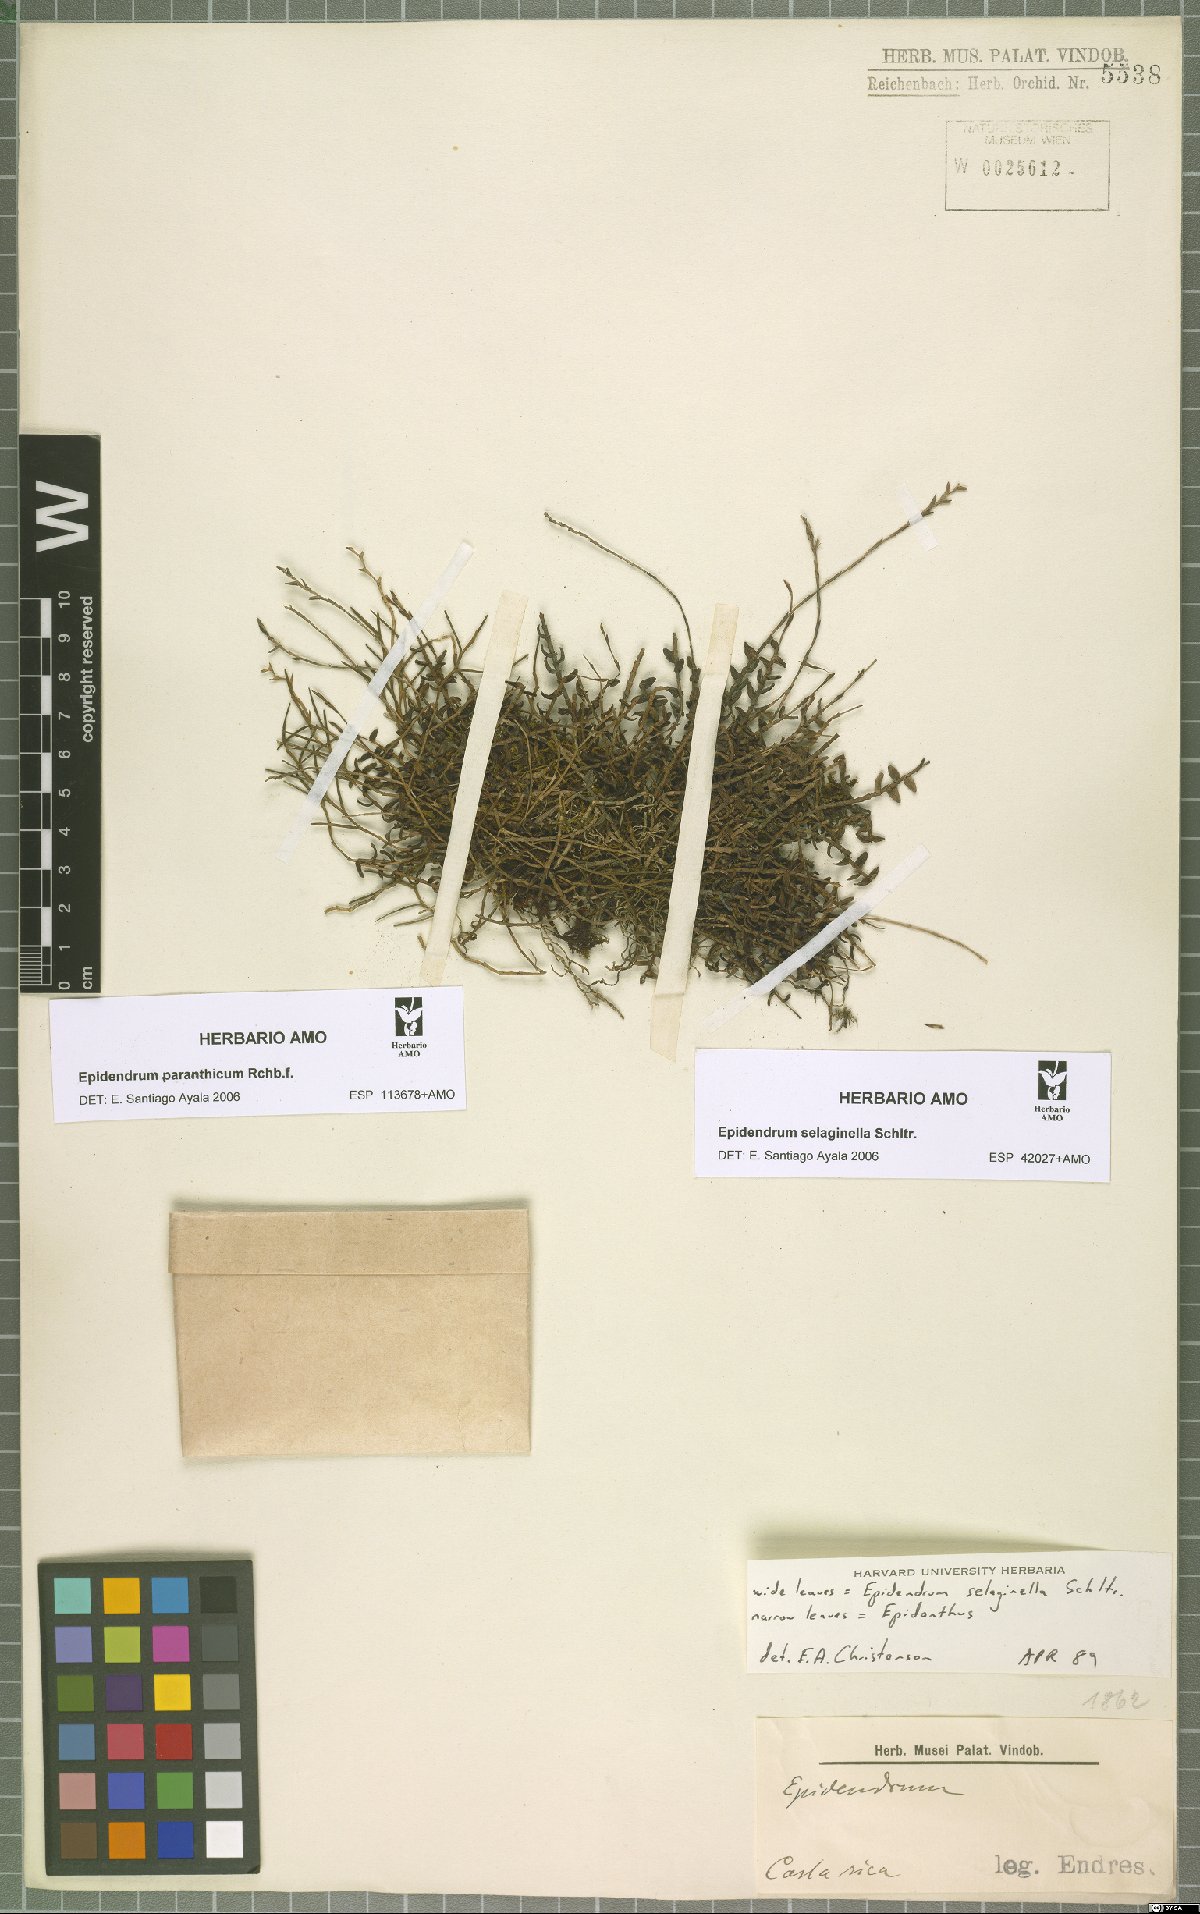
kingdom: Plantae
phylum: Tracheophyta
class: Liliopsida
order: Asparagales
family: Orchidaceae
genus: Epidendrum
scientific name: Epidendrum paranthicum
